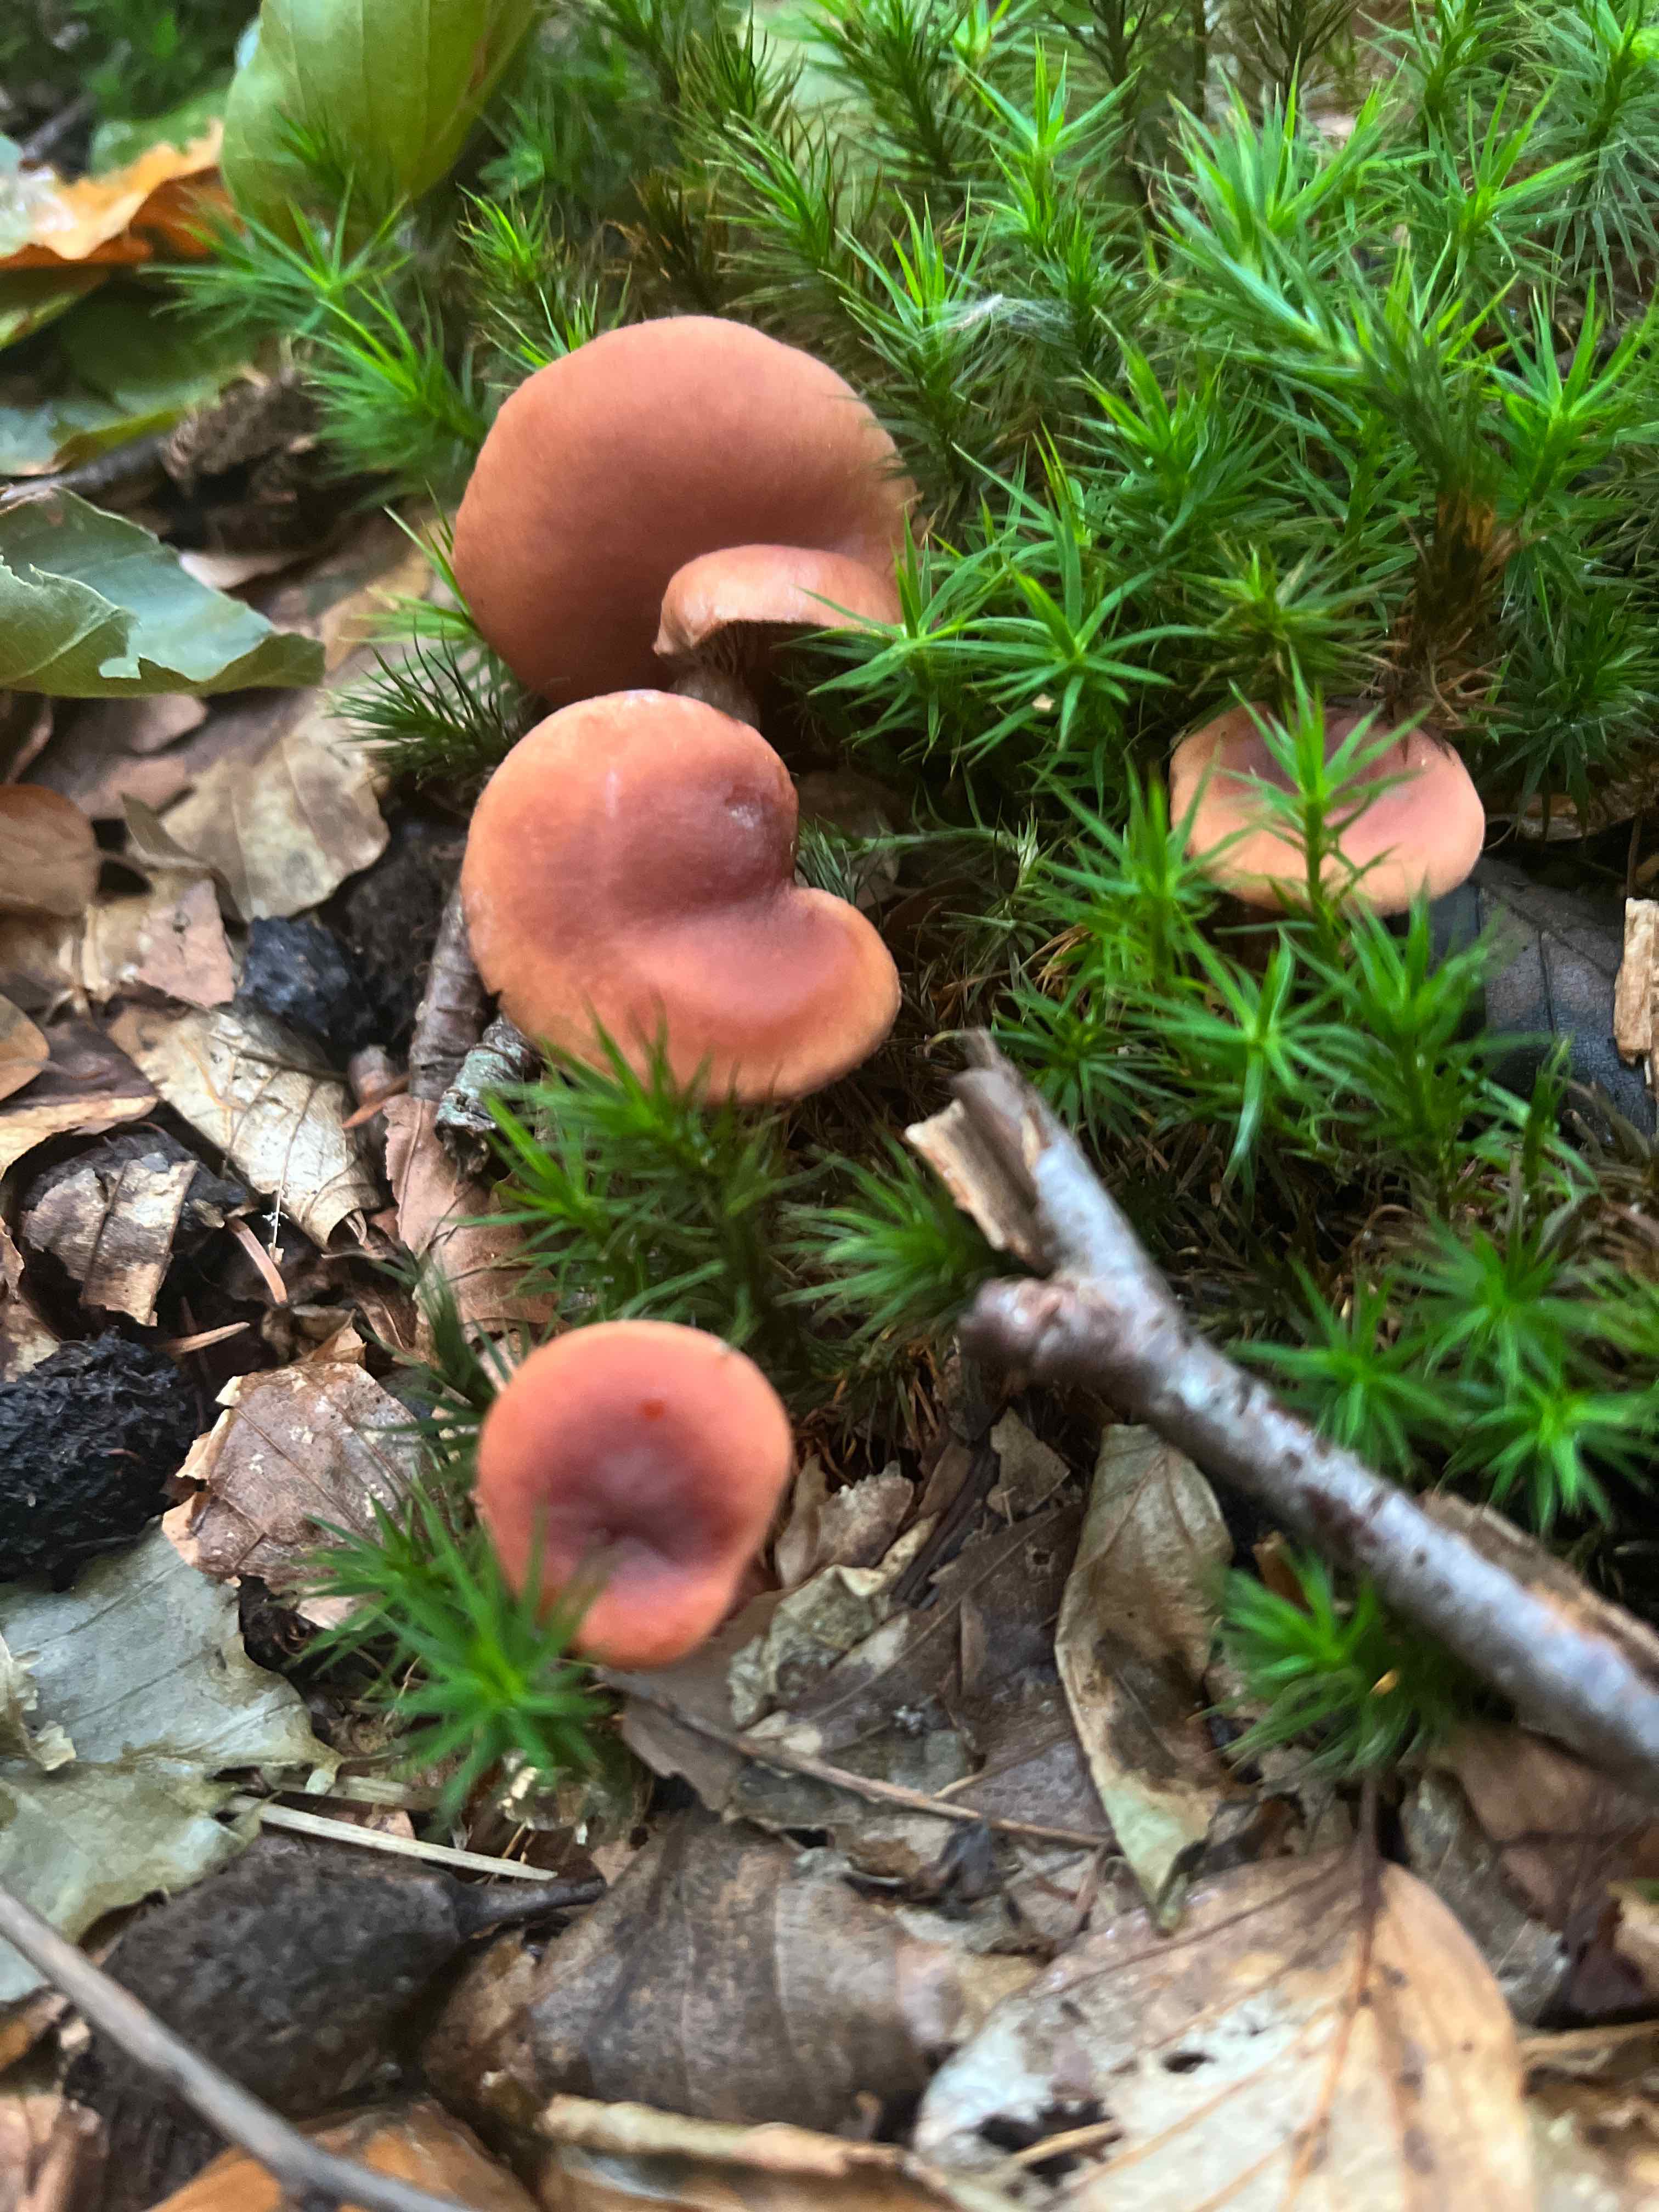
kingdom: Fungi
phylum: Basidiomycota
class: Agaricomycetes
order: Russulales
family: Russulaceae
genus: Lactarius
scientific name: Lactarius camphoratus
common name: kamfer-mælkehat
